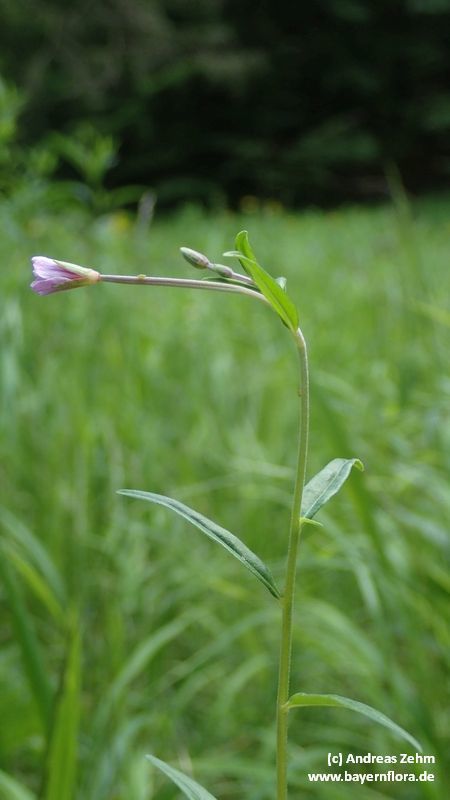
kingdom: Plantae
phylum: Tracheophyta
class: Magnoliopsida
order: Myrtales
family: Onagraceae
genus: Epilobium
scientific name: Epilobium palustre
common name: Marsh willowherb
